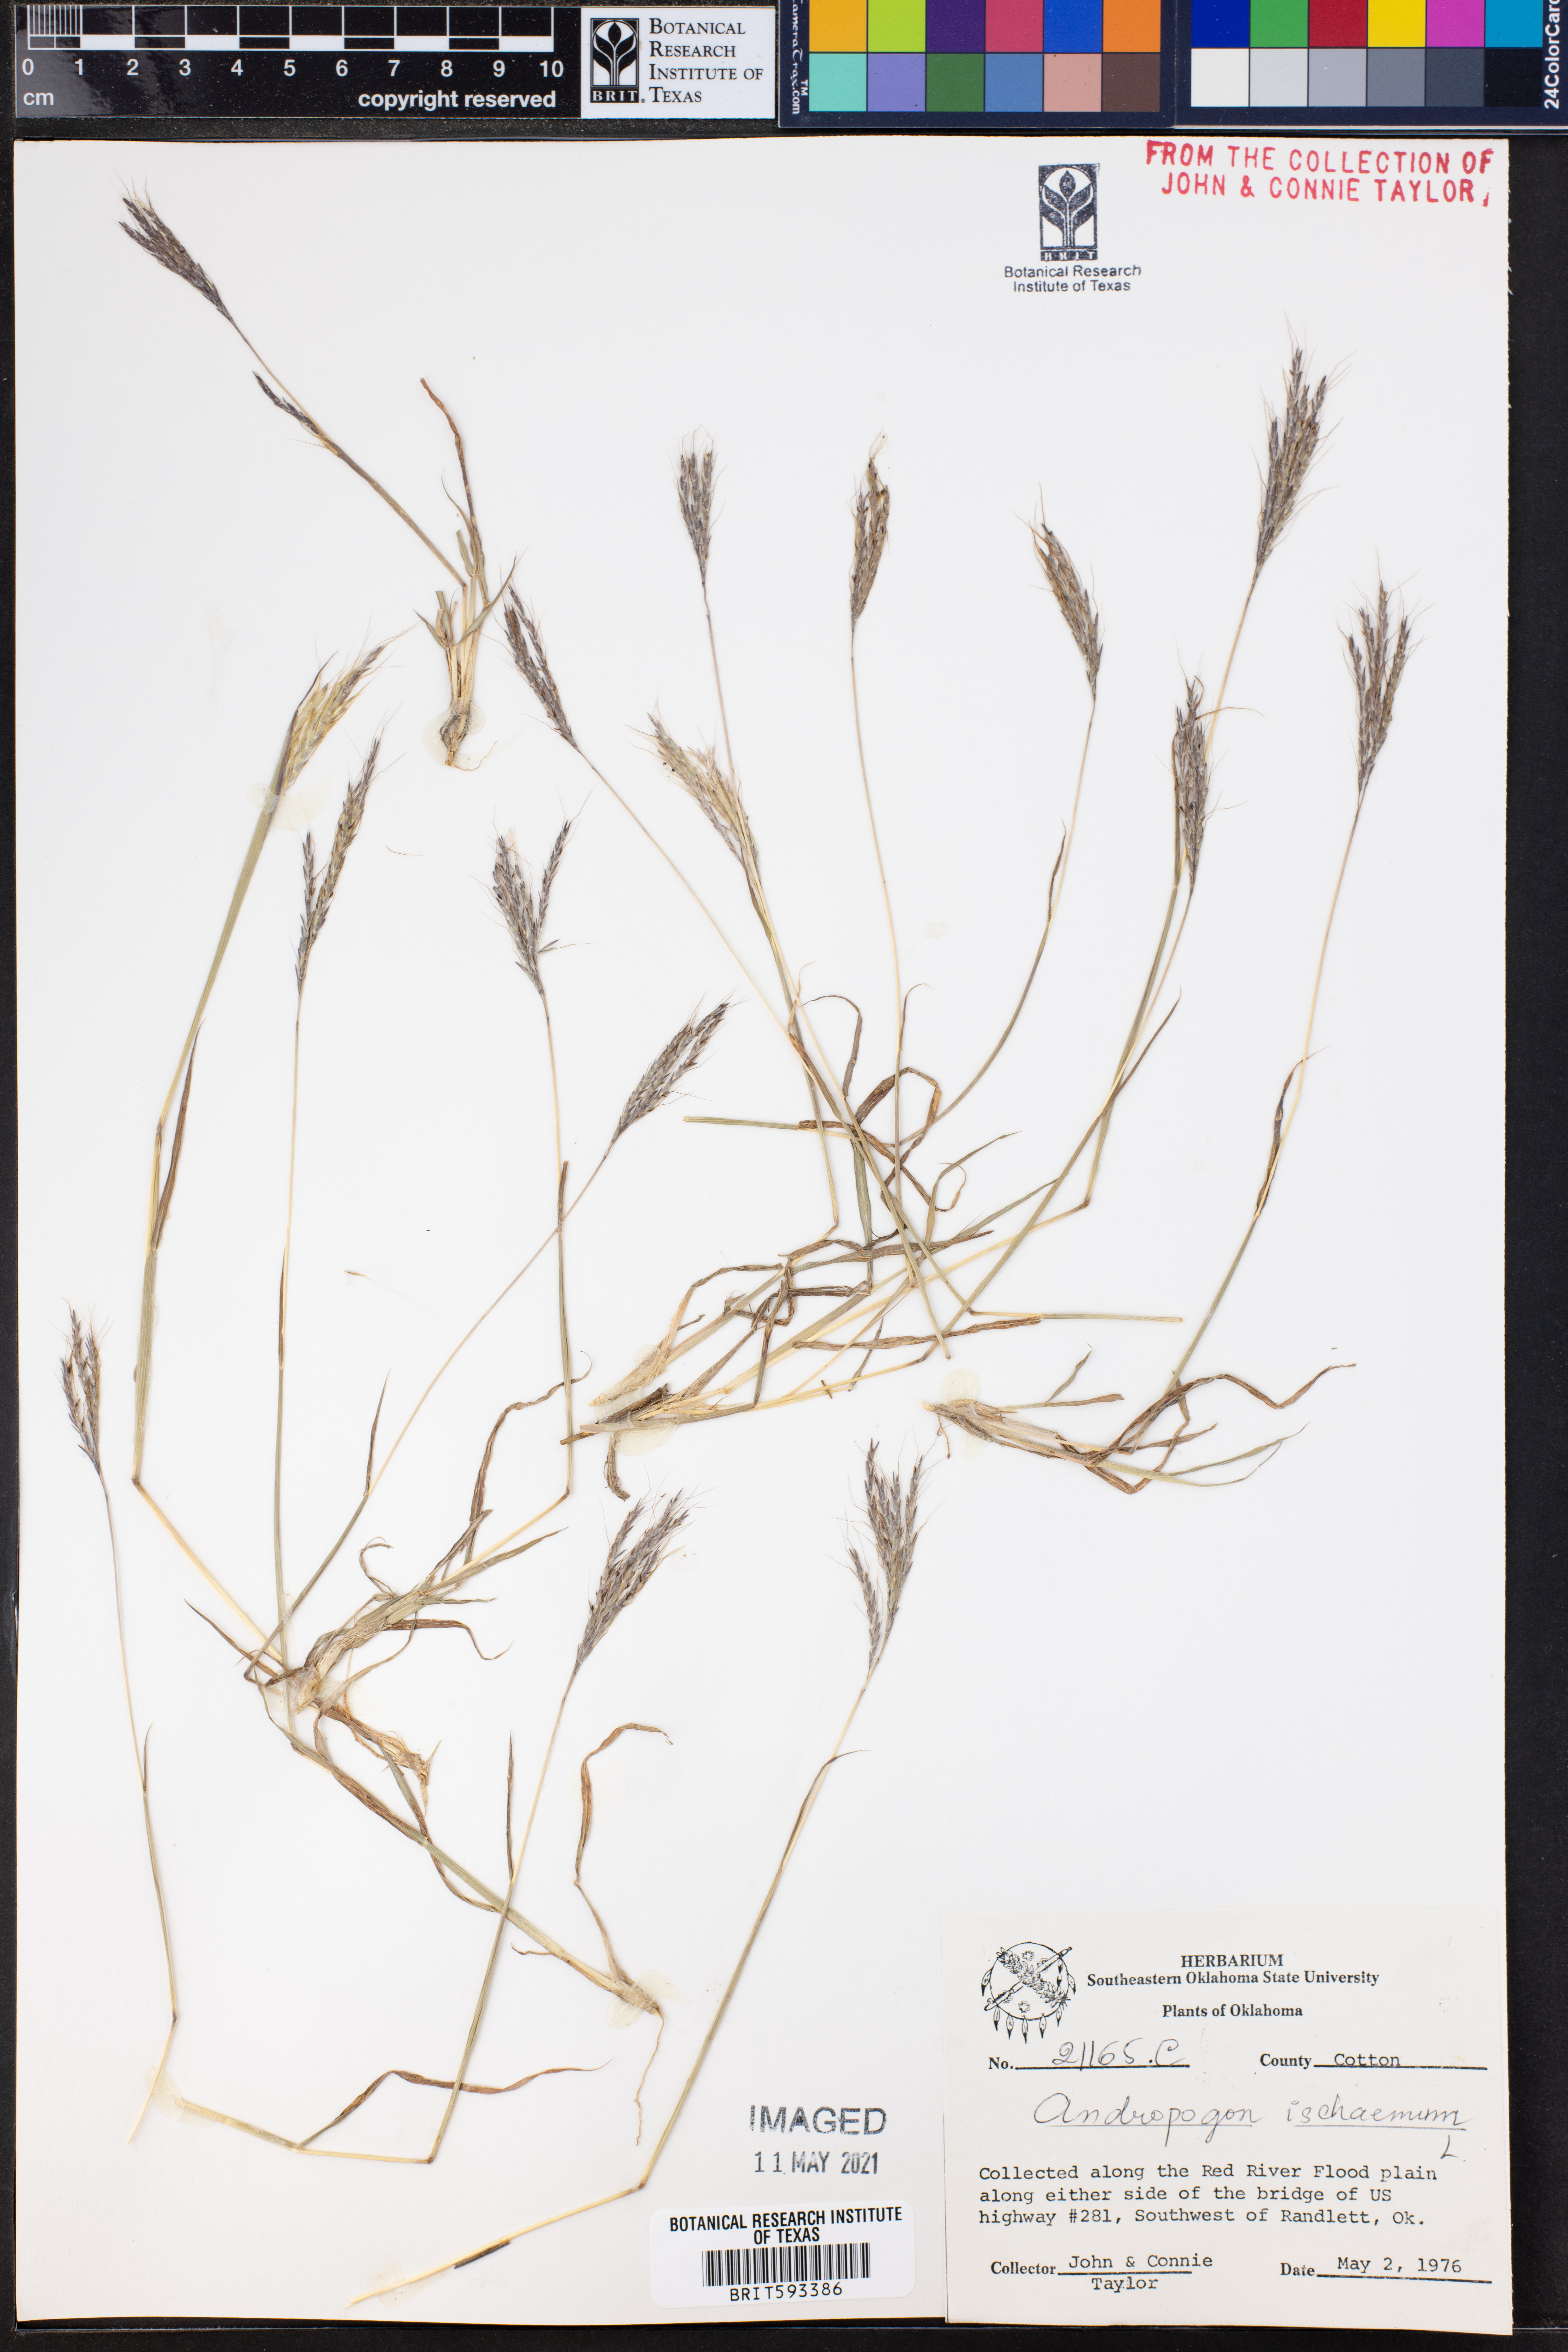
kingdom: Plantae
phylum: Tracheophyta
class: Liliopsida
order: Poales
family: Poaceae
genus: Andropogon
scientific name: Andropogon ischaemum
